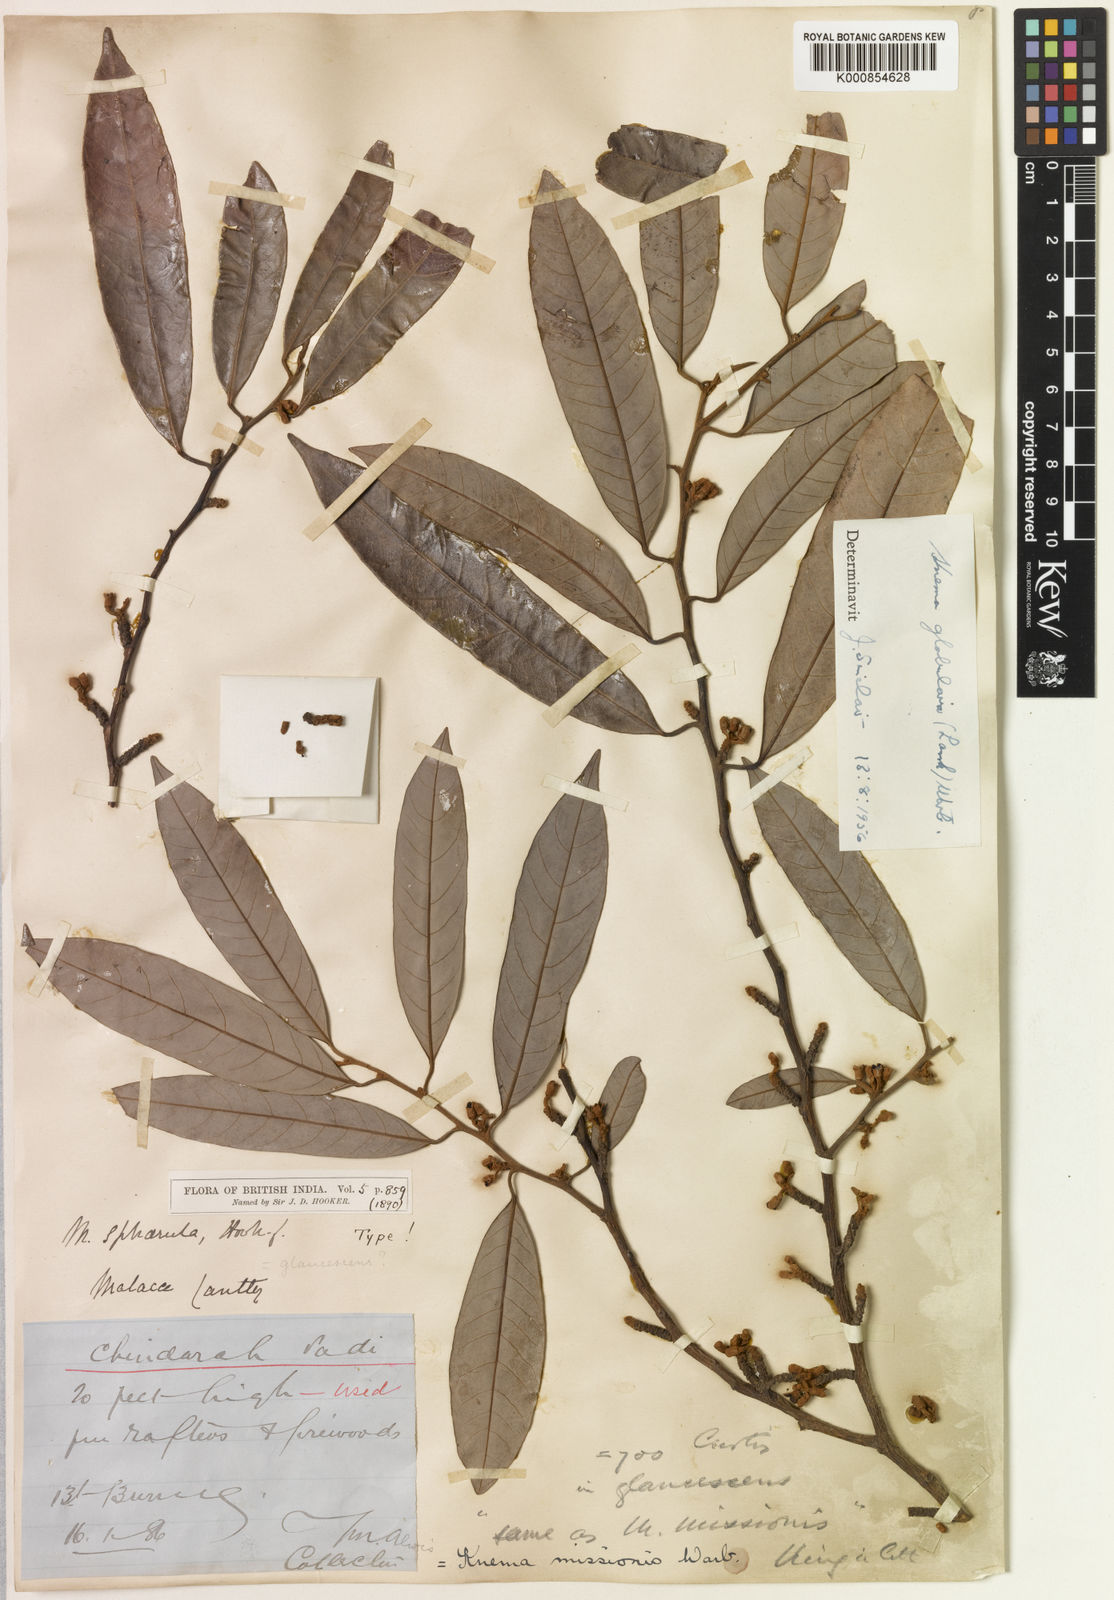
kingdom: Plantae
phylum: Tracheophyta
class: Magnoliopsida
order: Magnoliales
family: Myristicaceae
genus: Knema
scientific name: Knema globularia
